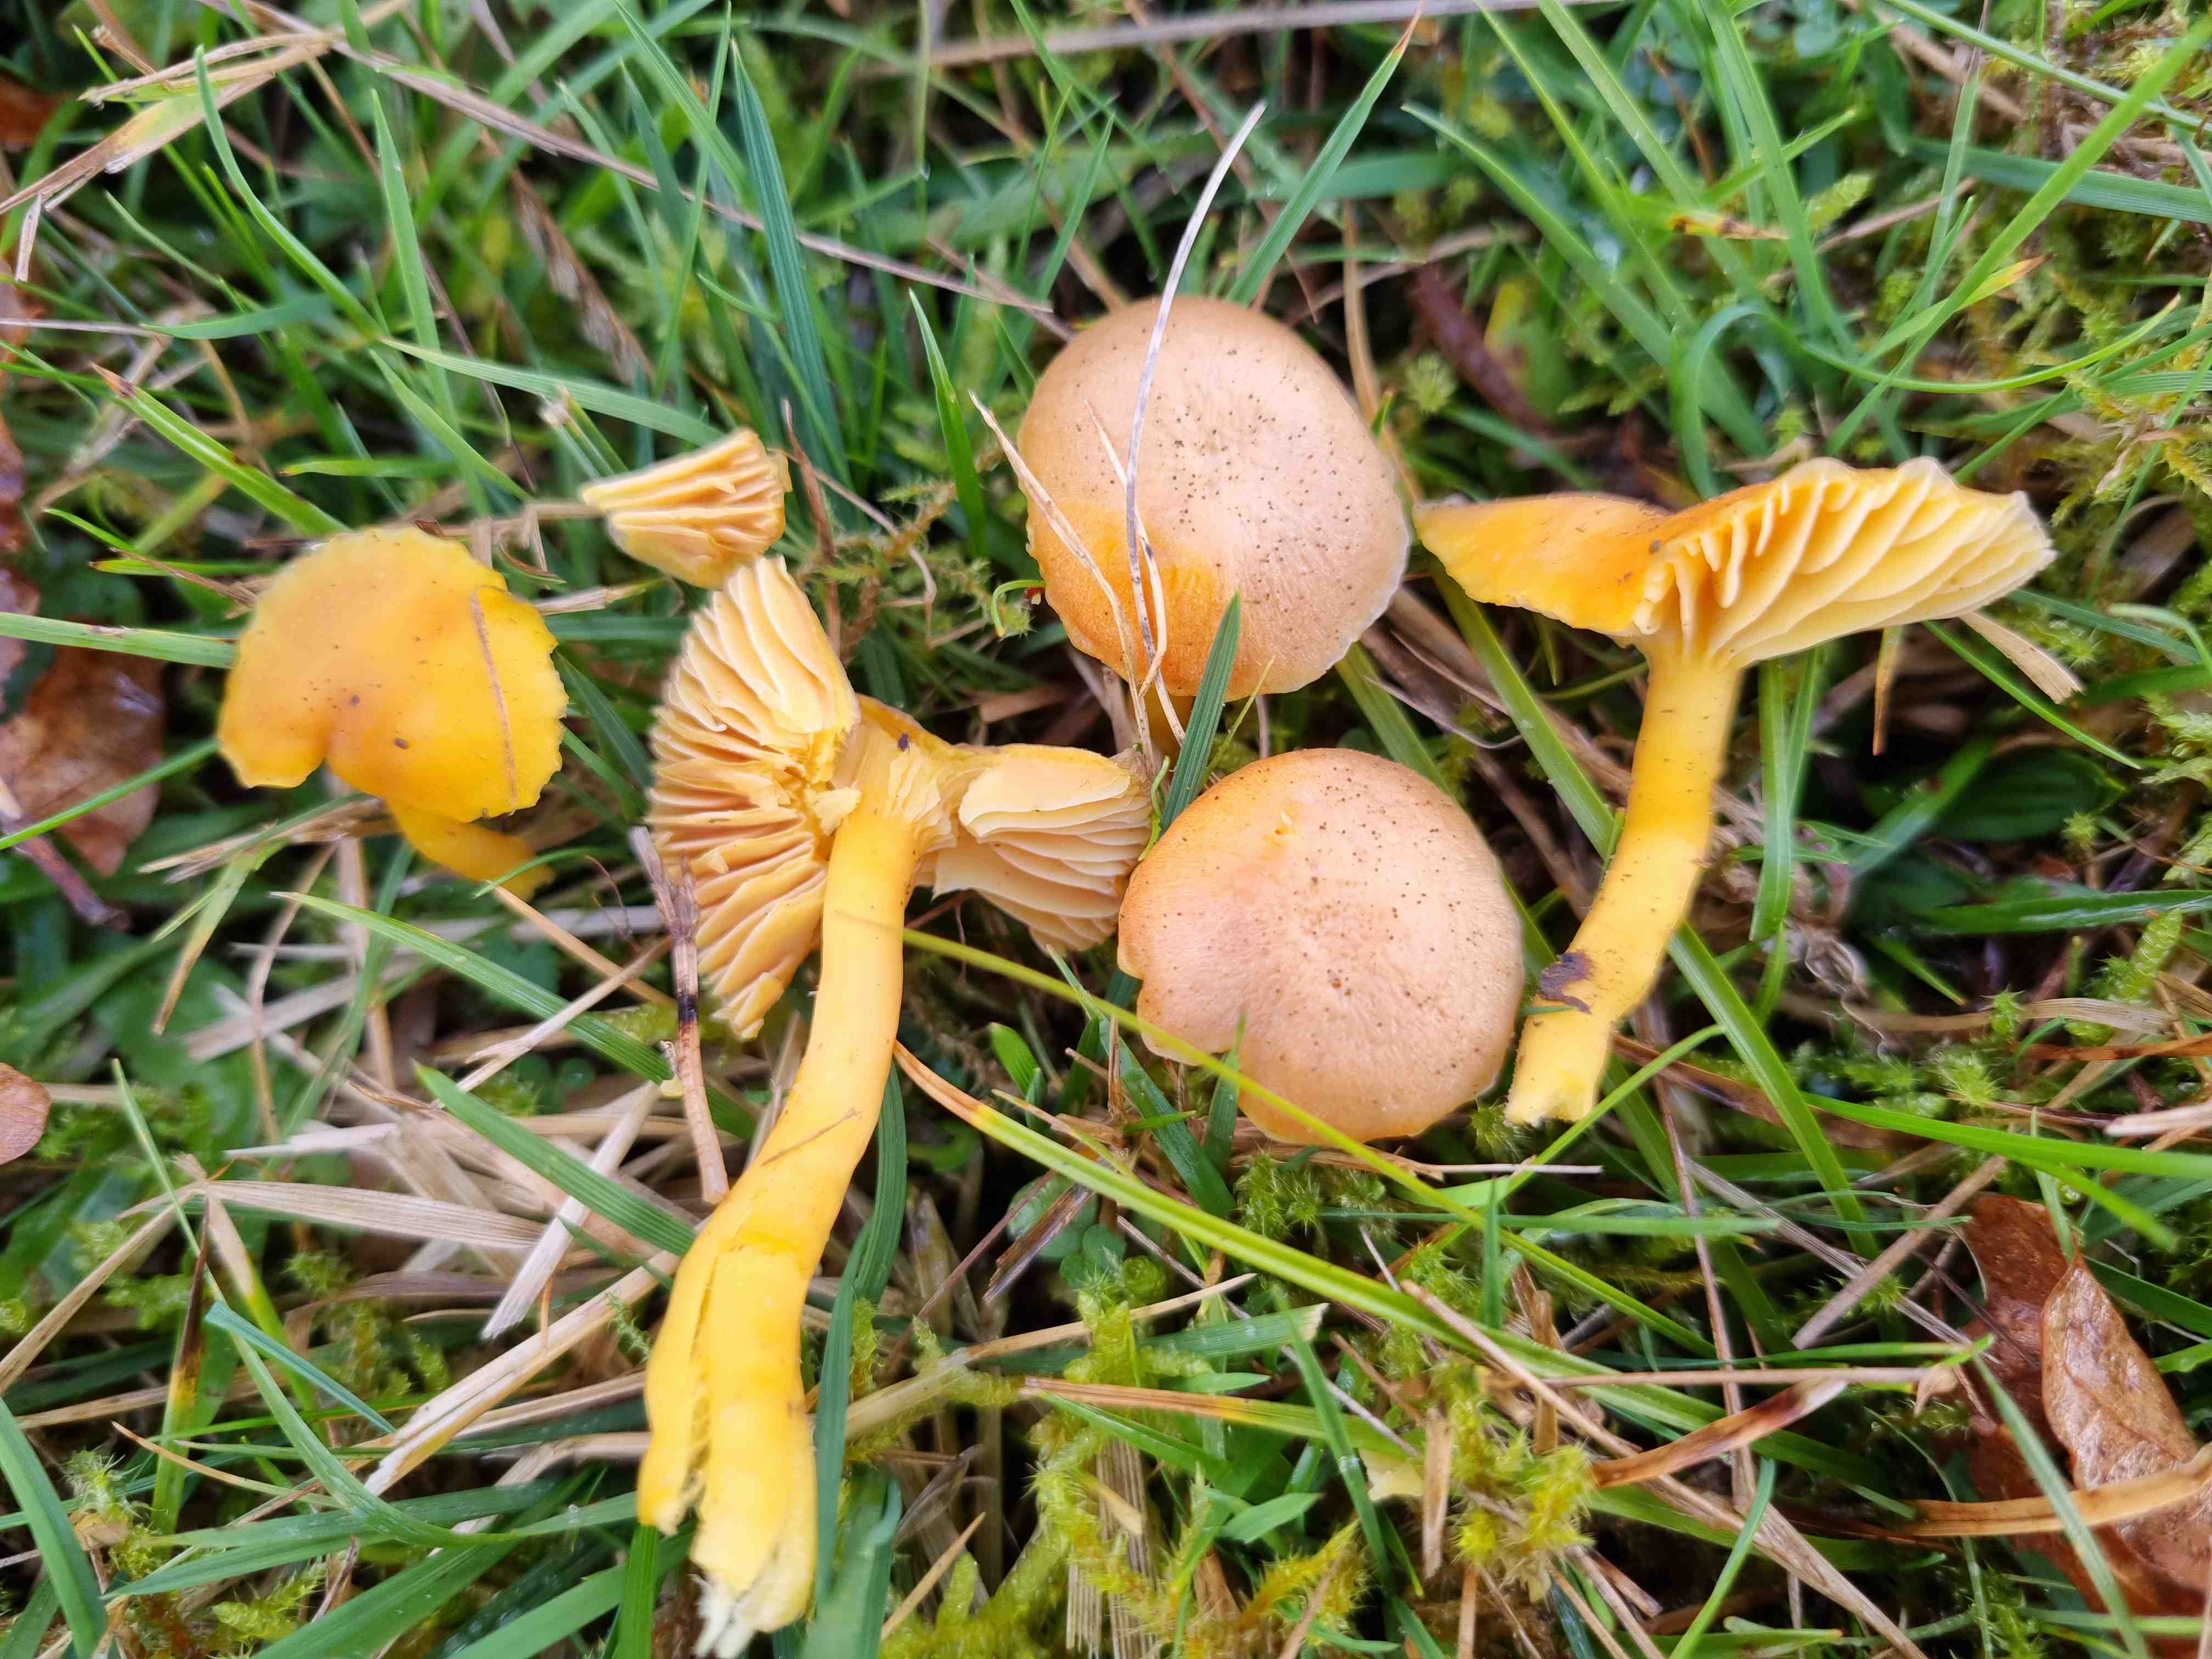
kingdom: Fungi
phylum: Basidiomycota
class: Agaricomycetes
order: Agaricales
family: Hygrophoraceae
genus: Hygrocybe
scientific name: Hygrocybe reidii
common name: honning-vokshat
